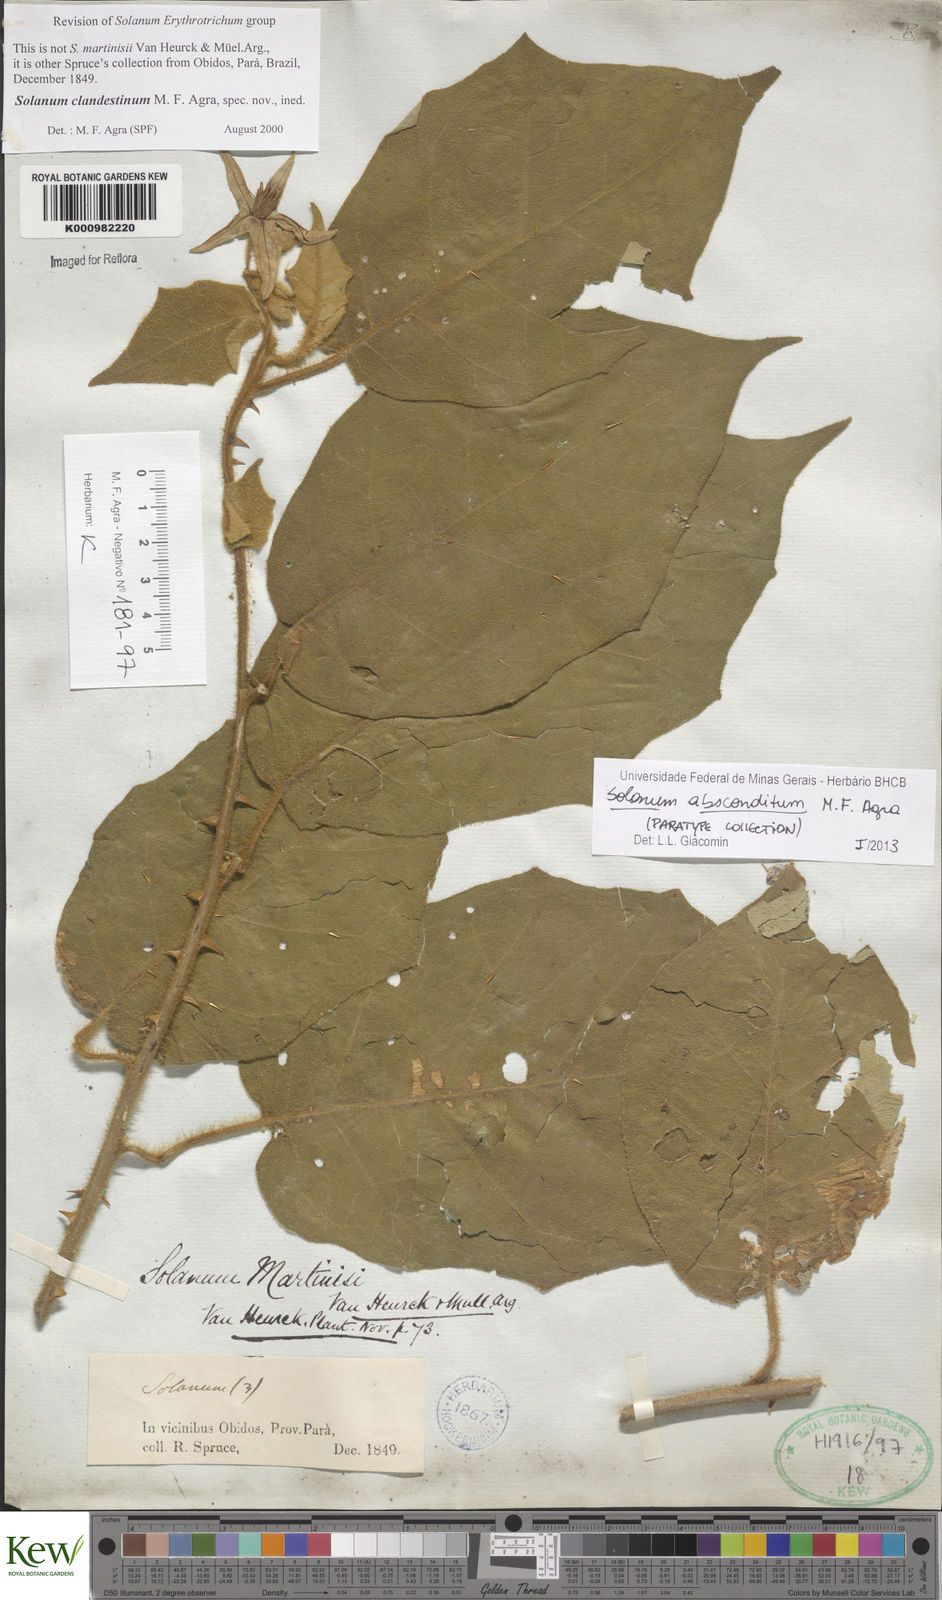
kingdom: Plantae
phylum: Tracheophyta
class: Magnoliopsida
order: Solanales
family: Solanaceae
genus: Solanum
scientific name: Solanum absconditum
